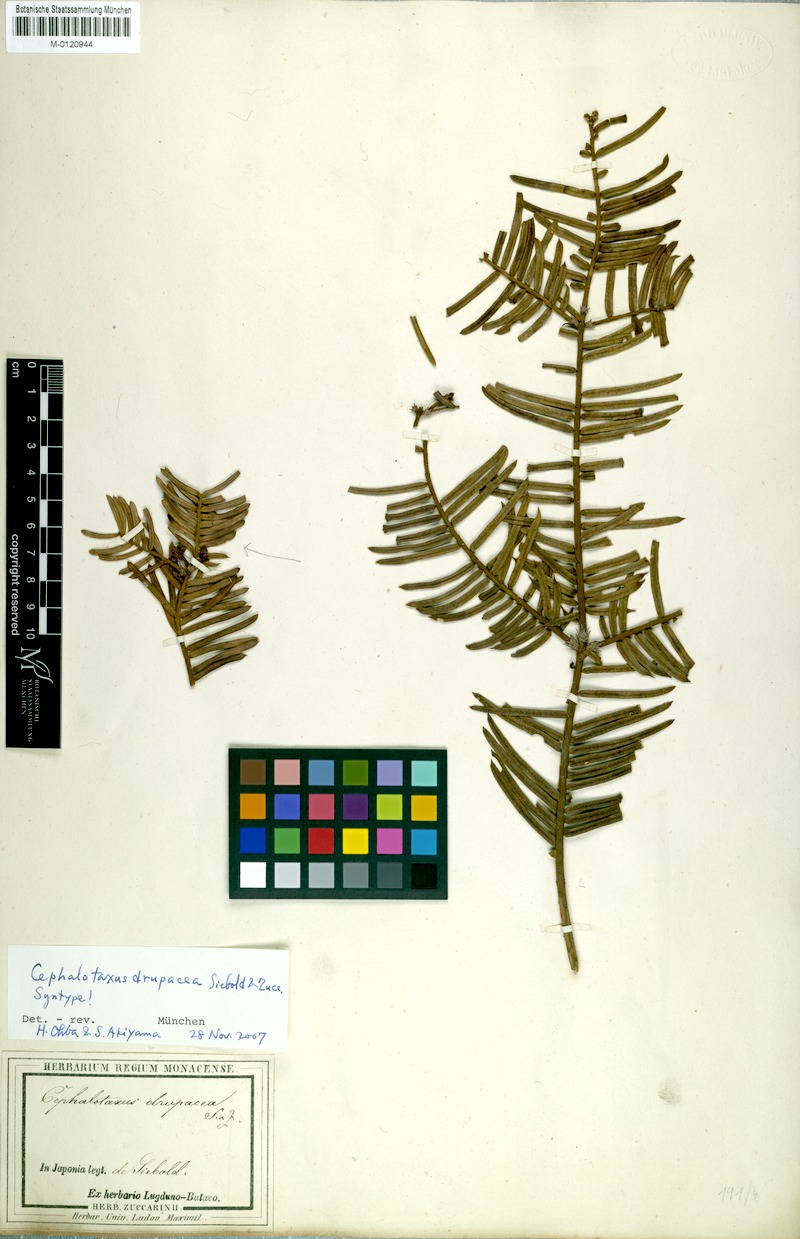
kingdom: Plantae
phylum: Tracheophyta
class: Pinopsida
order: Pinales
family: Cephalotaxaceae
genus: Cephalotaxus
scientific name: Cephalotaxus harringtonii
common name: Harrington's plum yew
